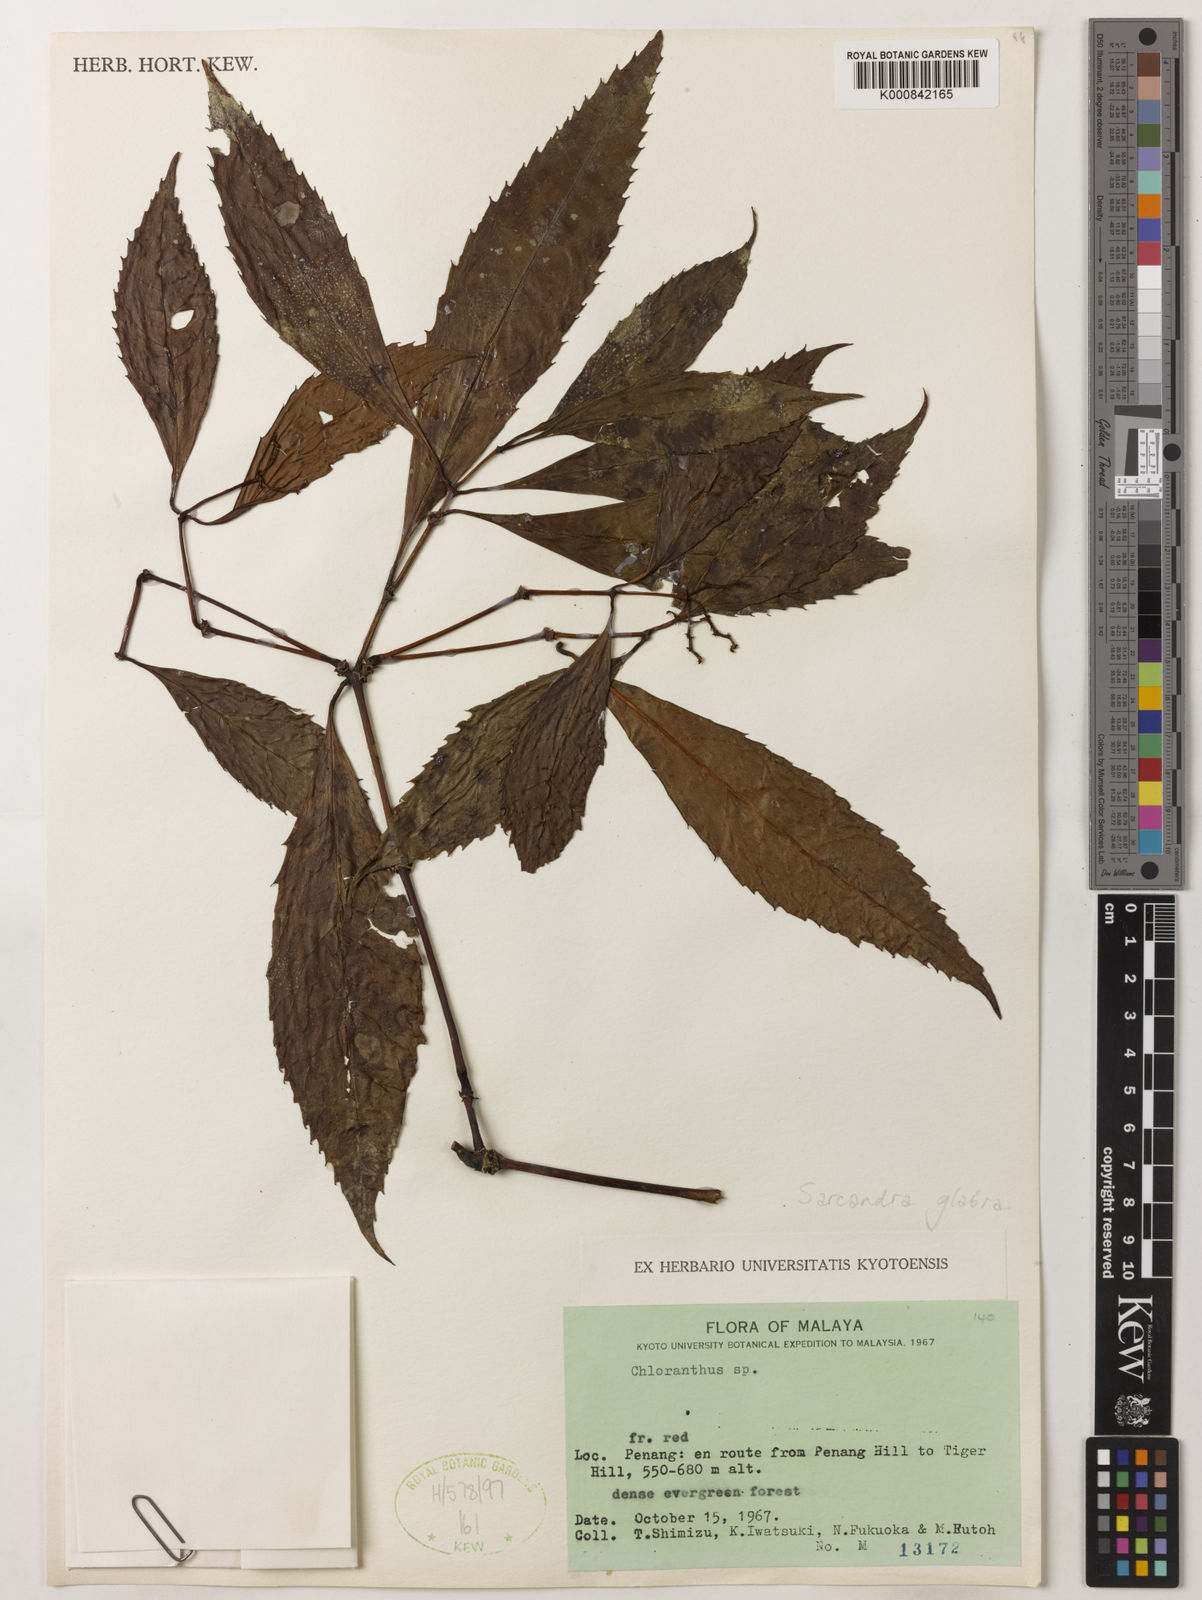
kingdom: Plantae
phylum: Tracheophyta
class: Magnoliopsida
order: Chloranthales
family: Chloranthaceae
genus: Sarcandra
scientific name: Sarcandra glabra
